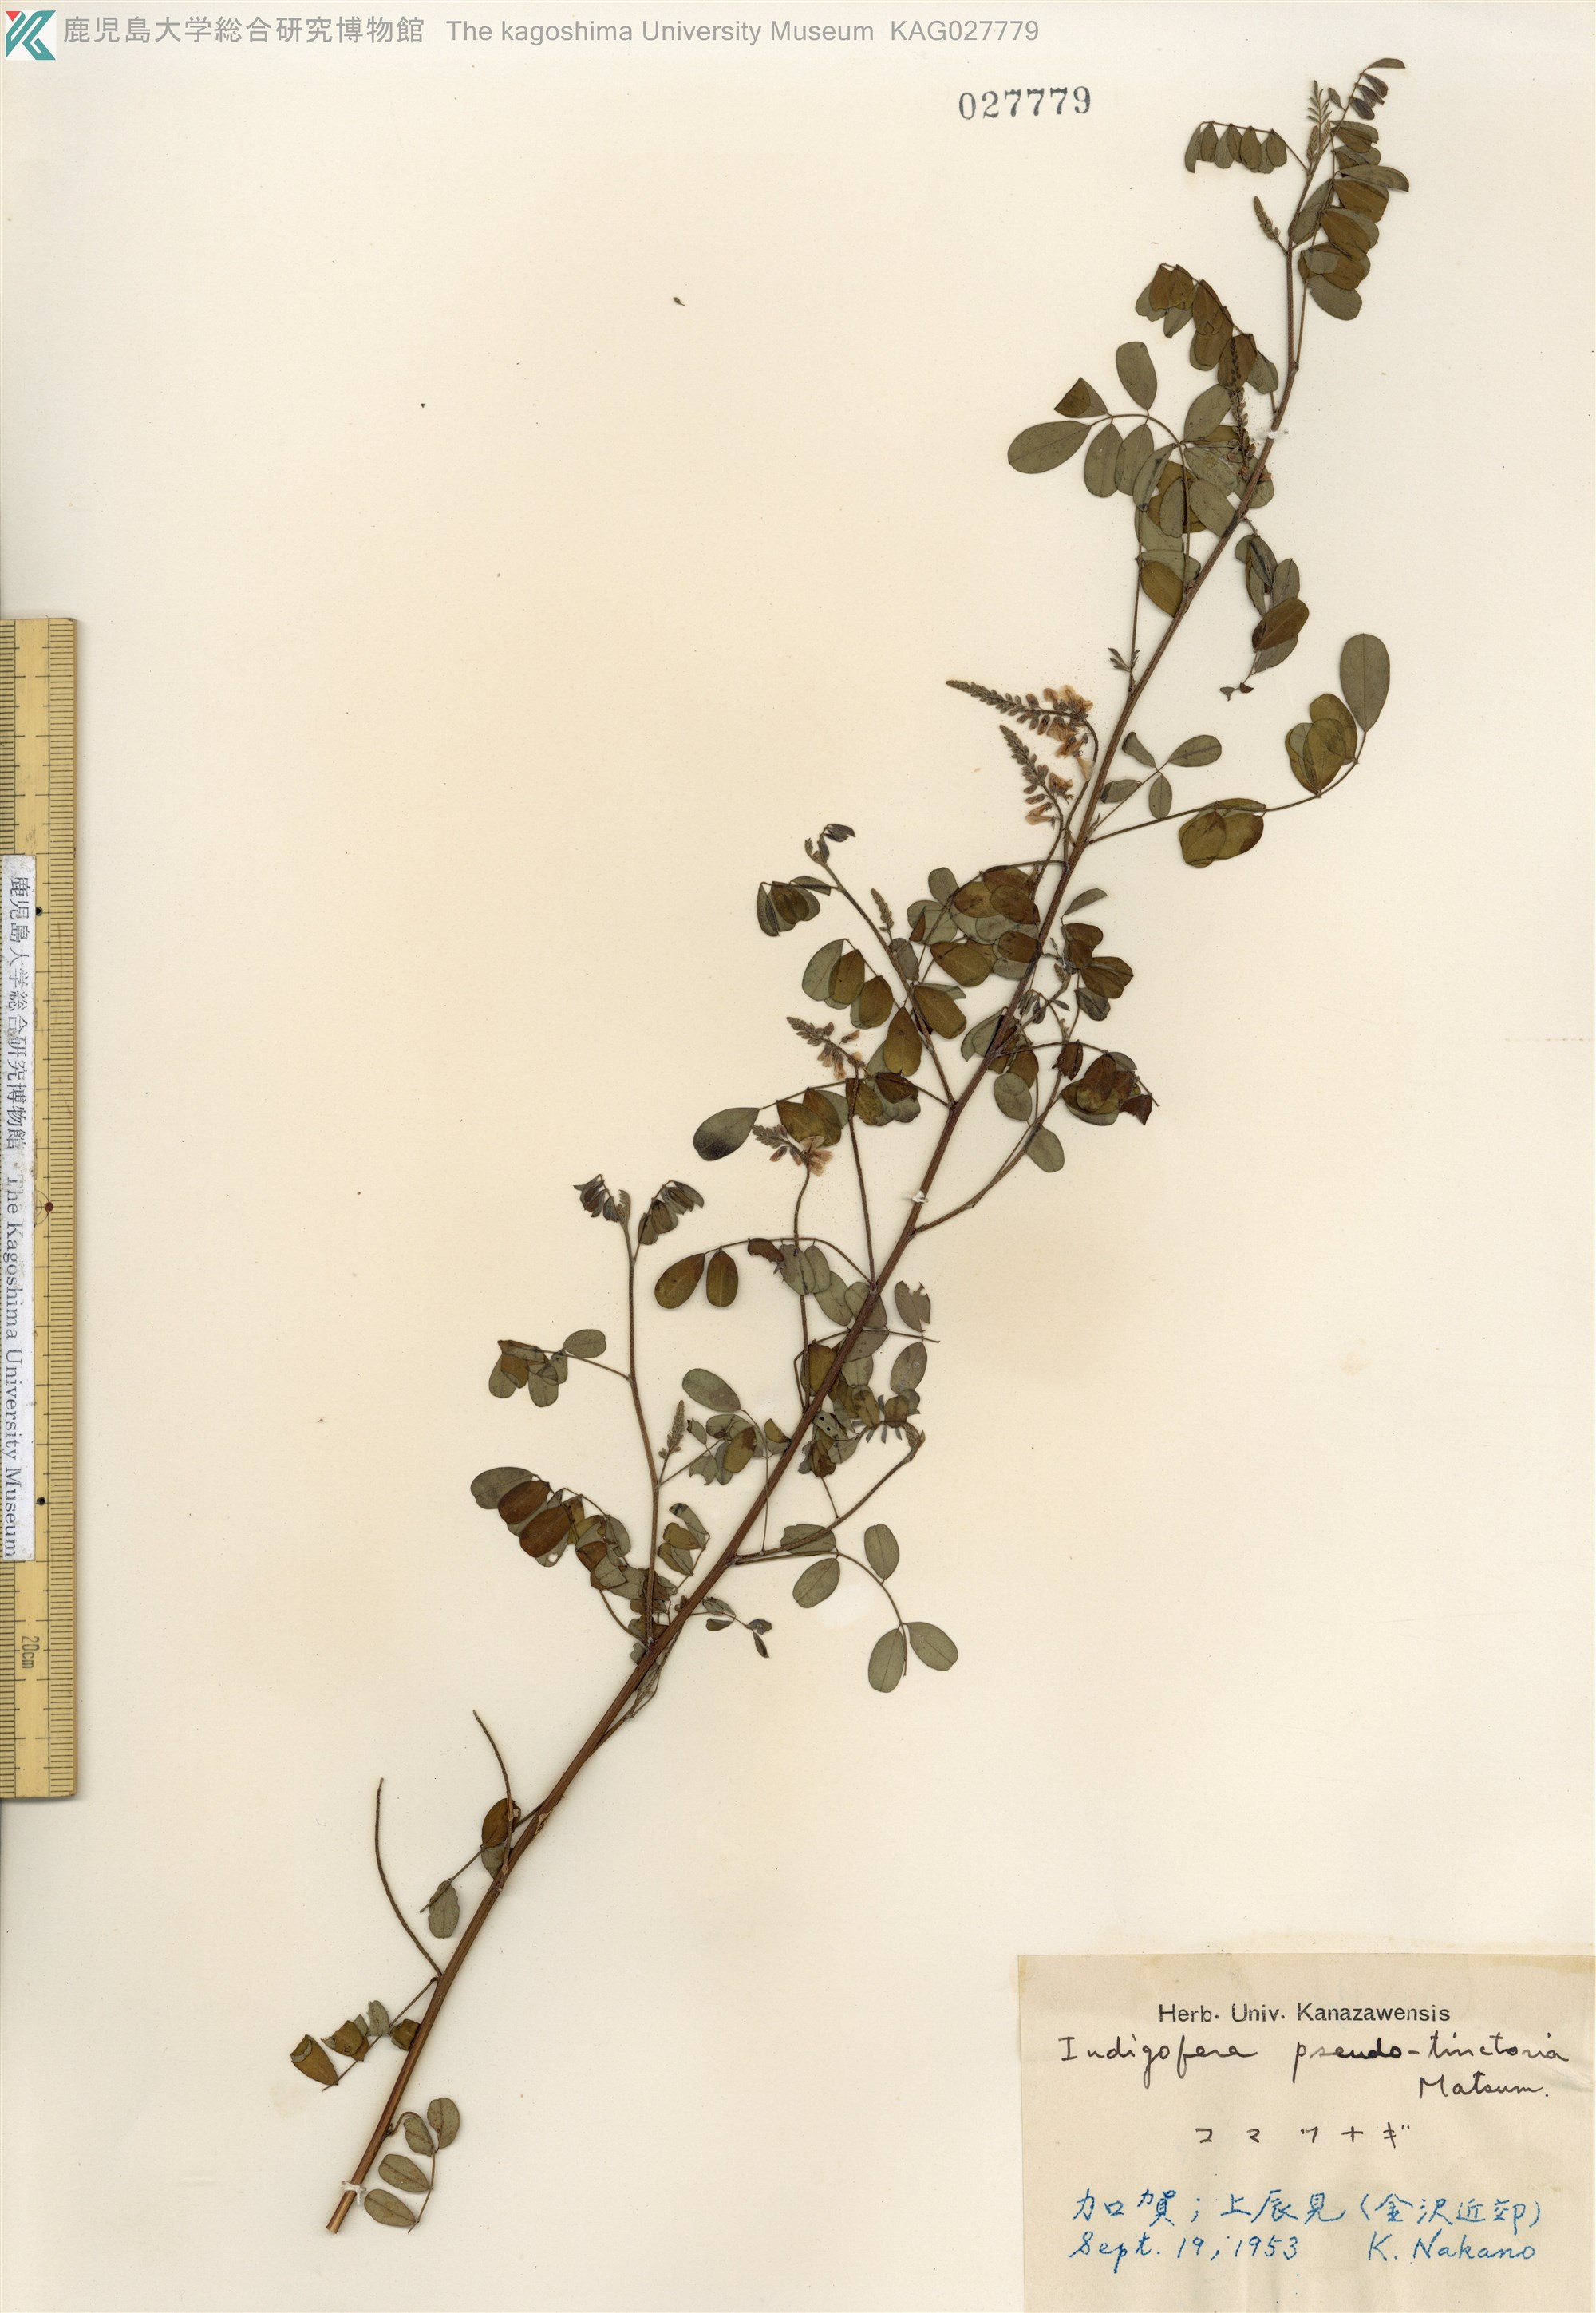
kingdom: Plantae
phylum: Tracheophyta
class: Magnoliopsida
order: Fabales
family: Fabaceae
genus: Indigofera
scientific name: Indigofera bungeana
